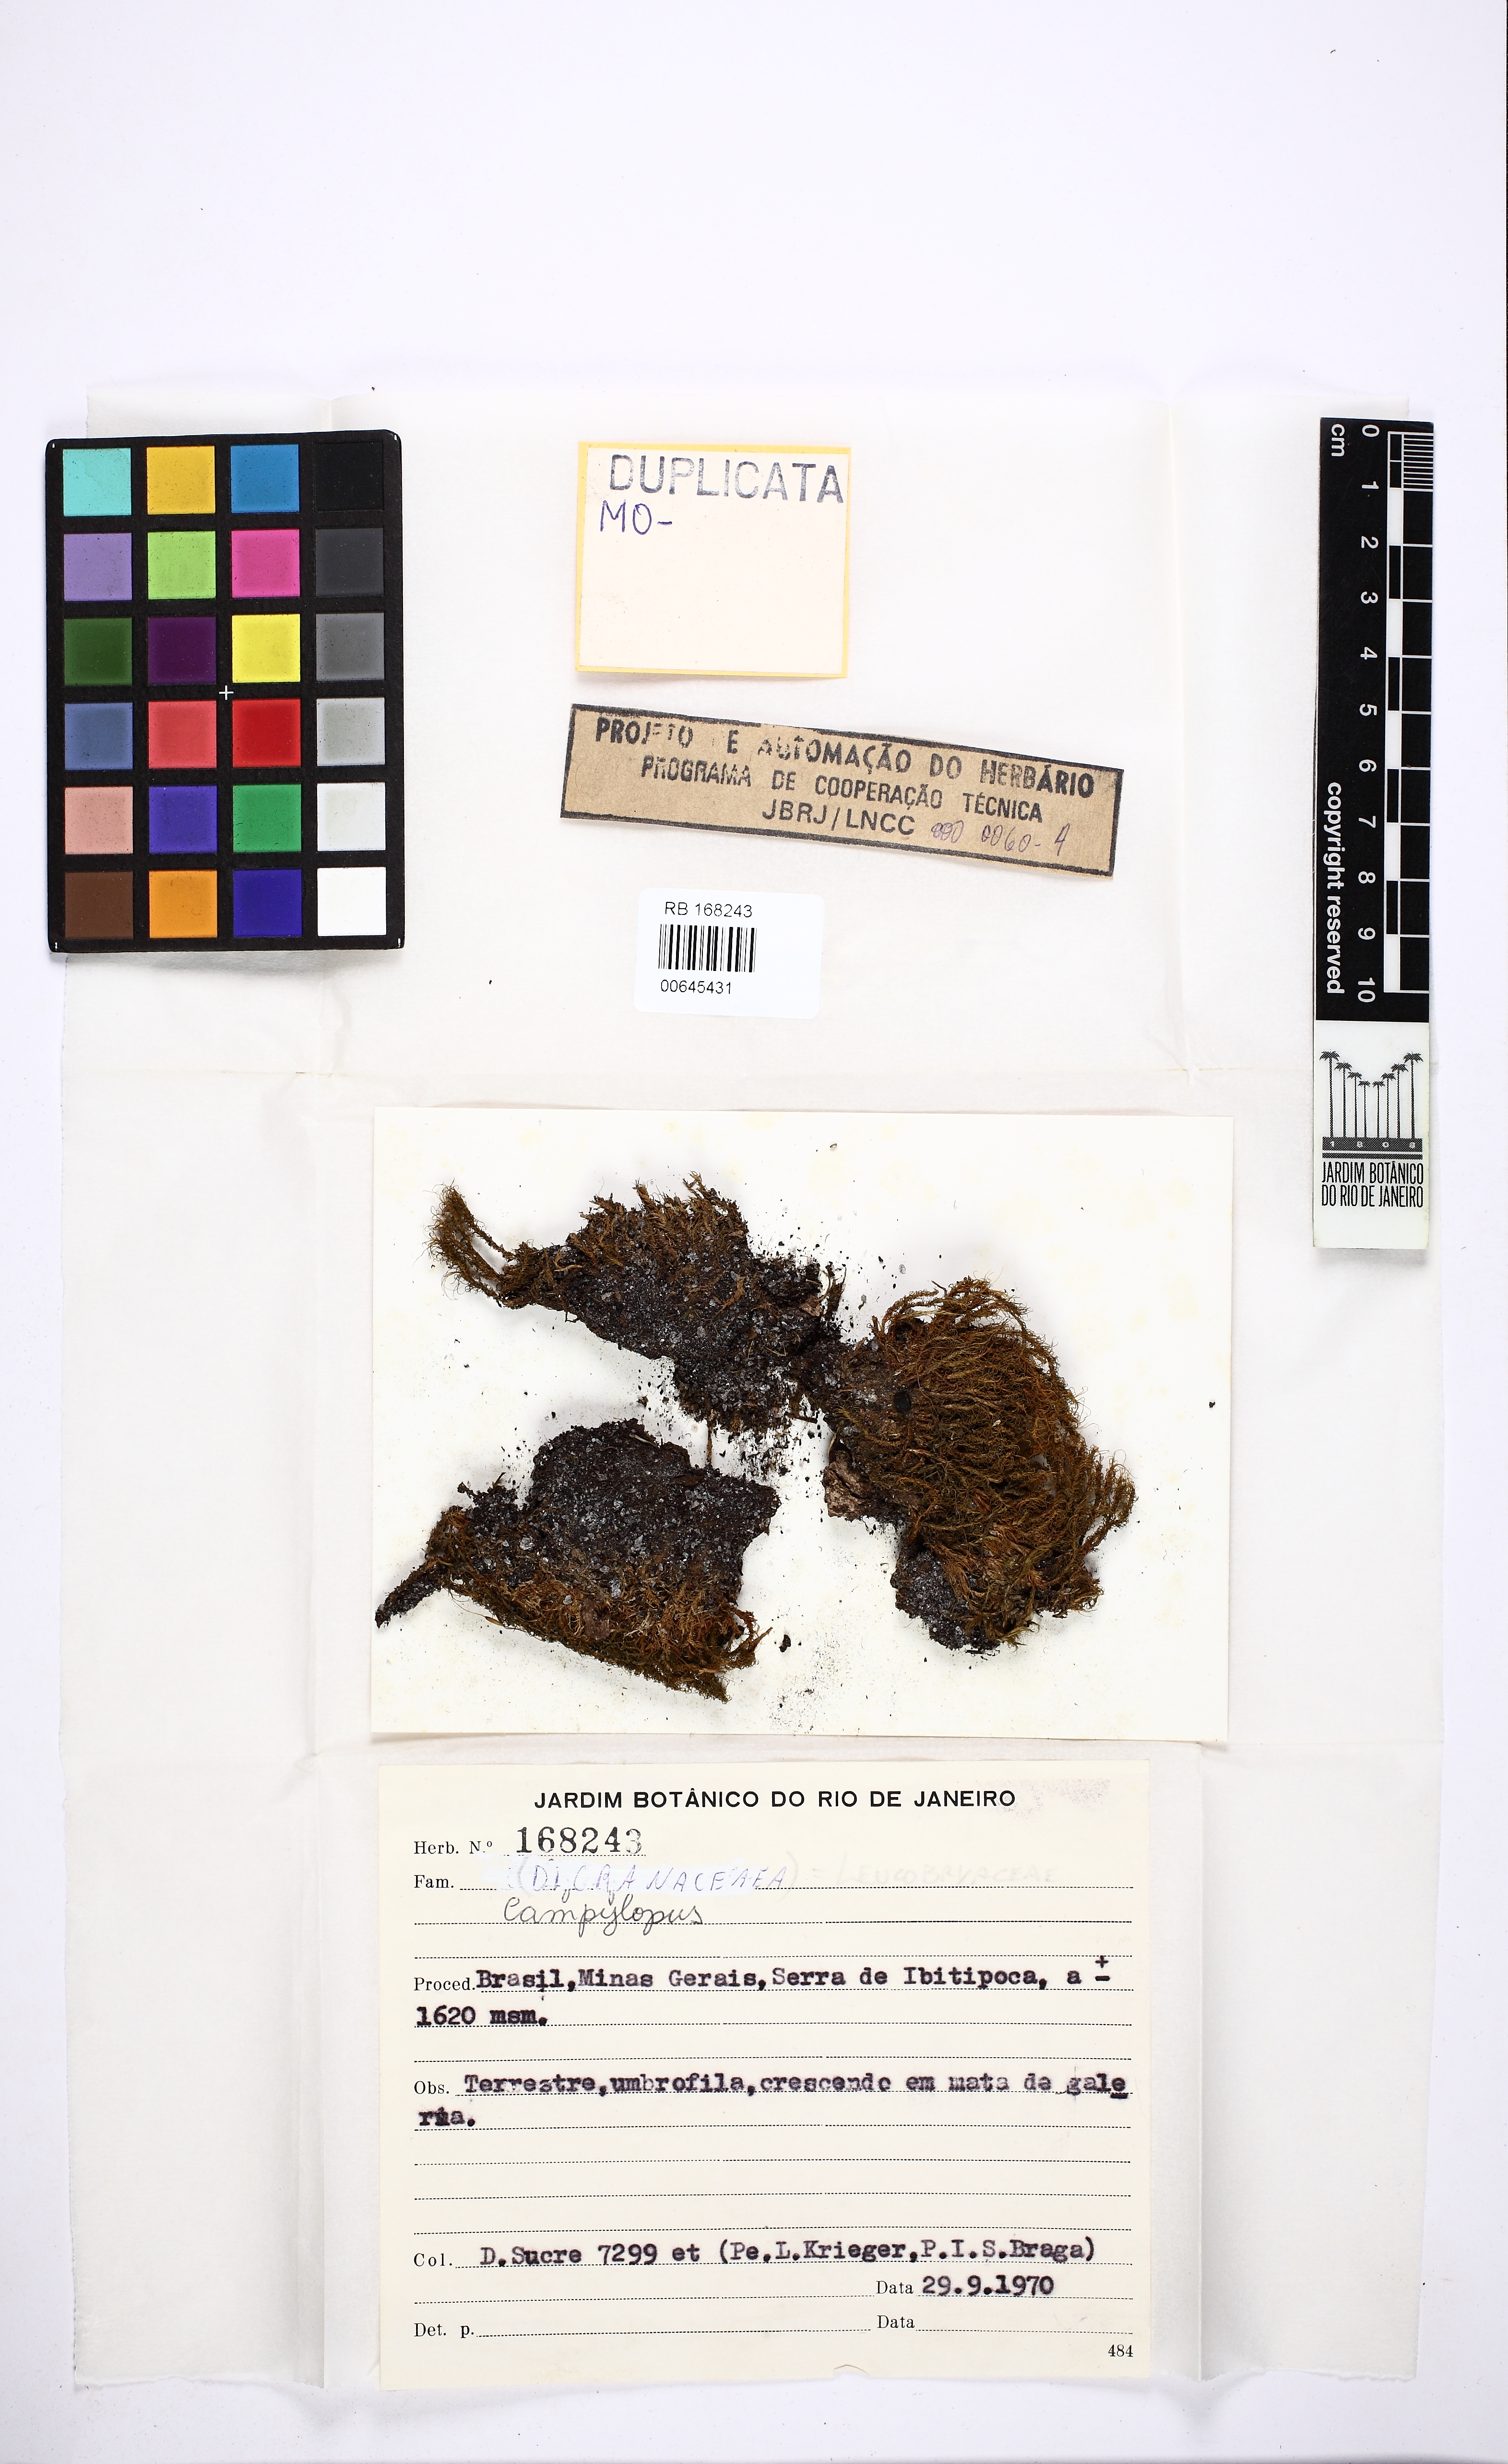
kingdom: Plantae
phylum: Bryophyta
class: Bryopsida
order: Dicranales
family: Leucobryaceae
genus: Campylopus
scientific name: Campylopus
